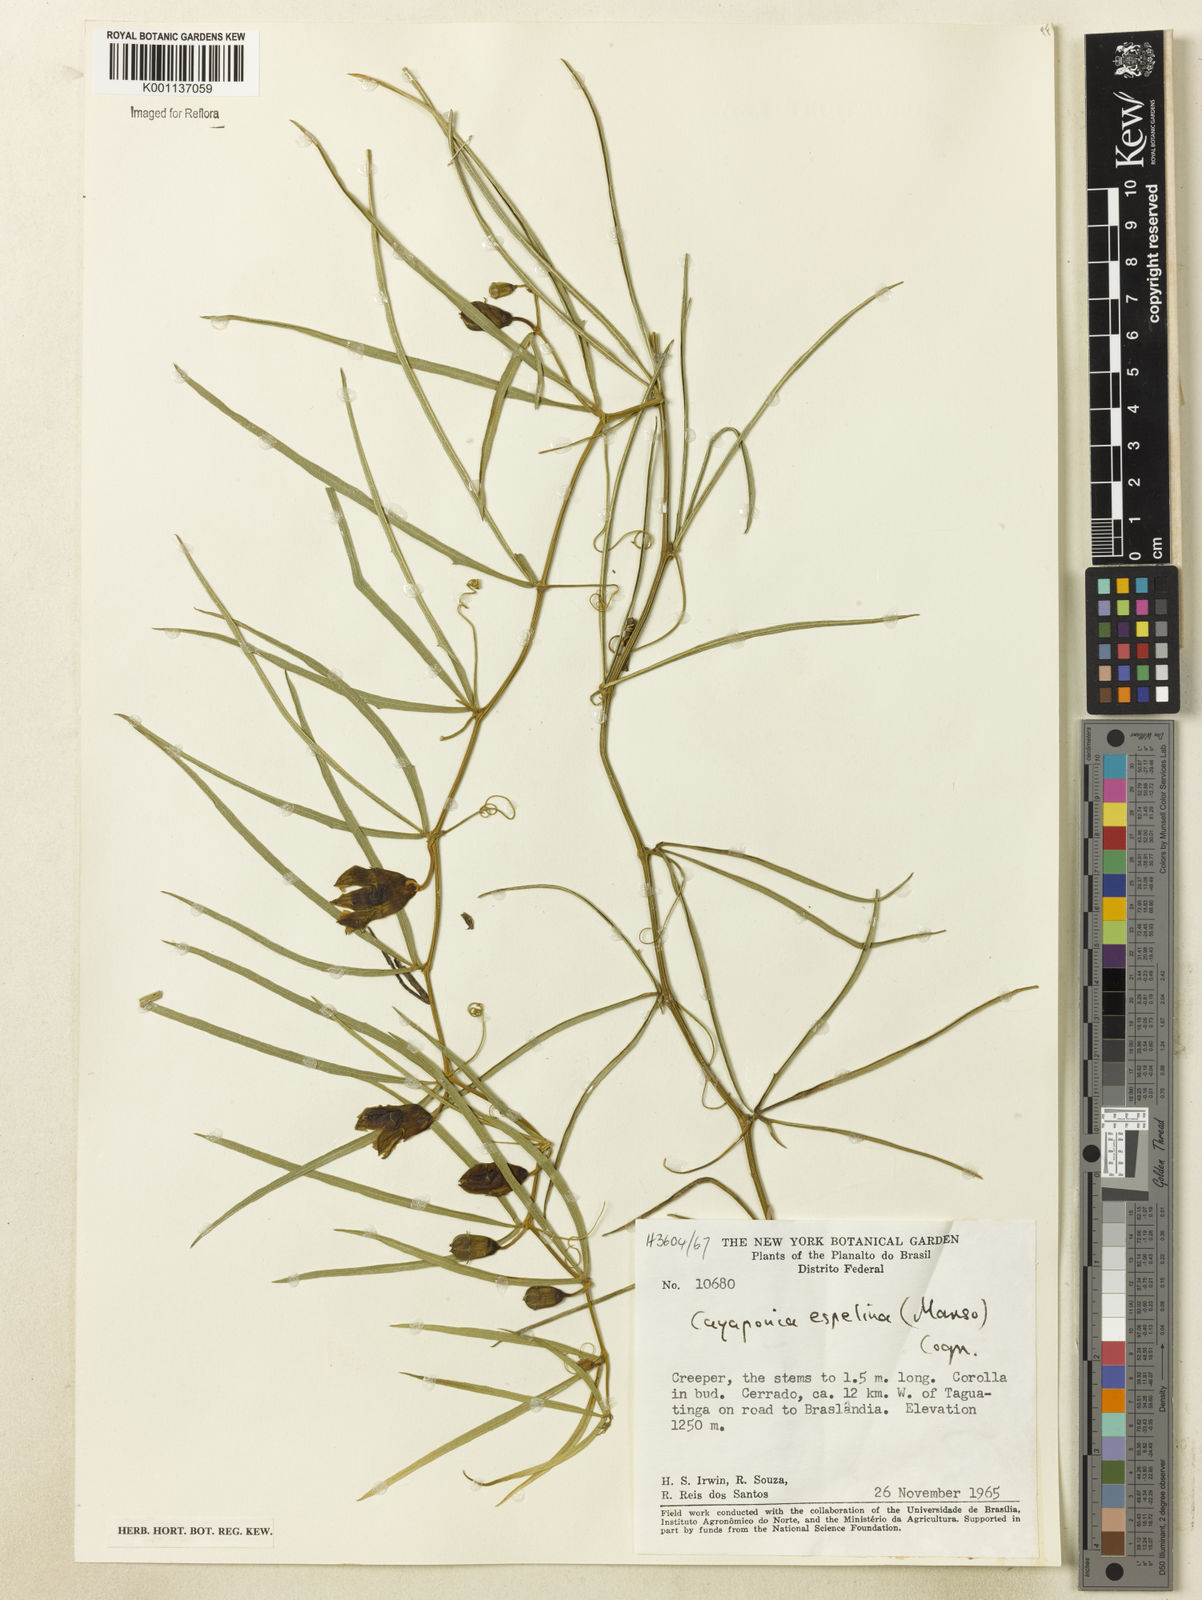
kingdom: Plantae
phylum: Tracheophyta
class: Magnoliopsida
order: Cucurbitales
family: Cucurbitaceae
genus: Cayaponia
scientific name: Cayaponia espelina
